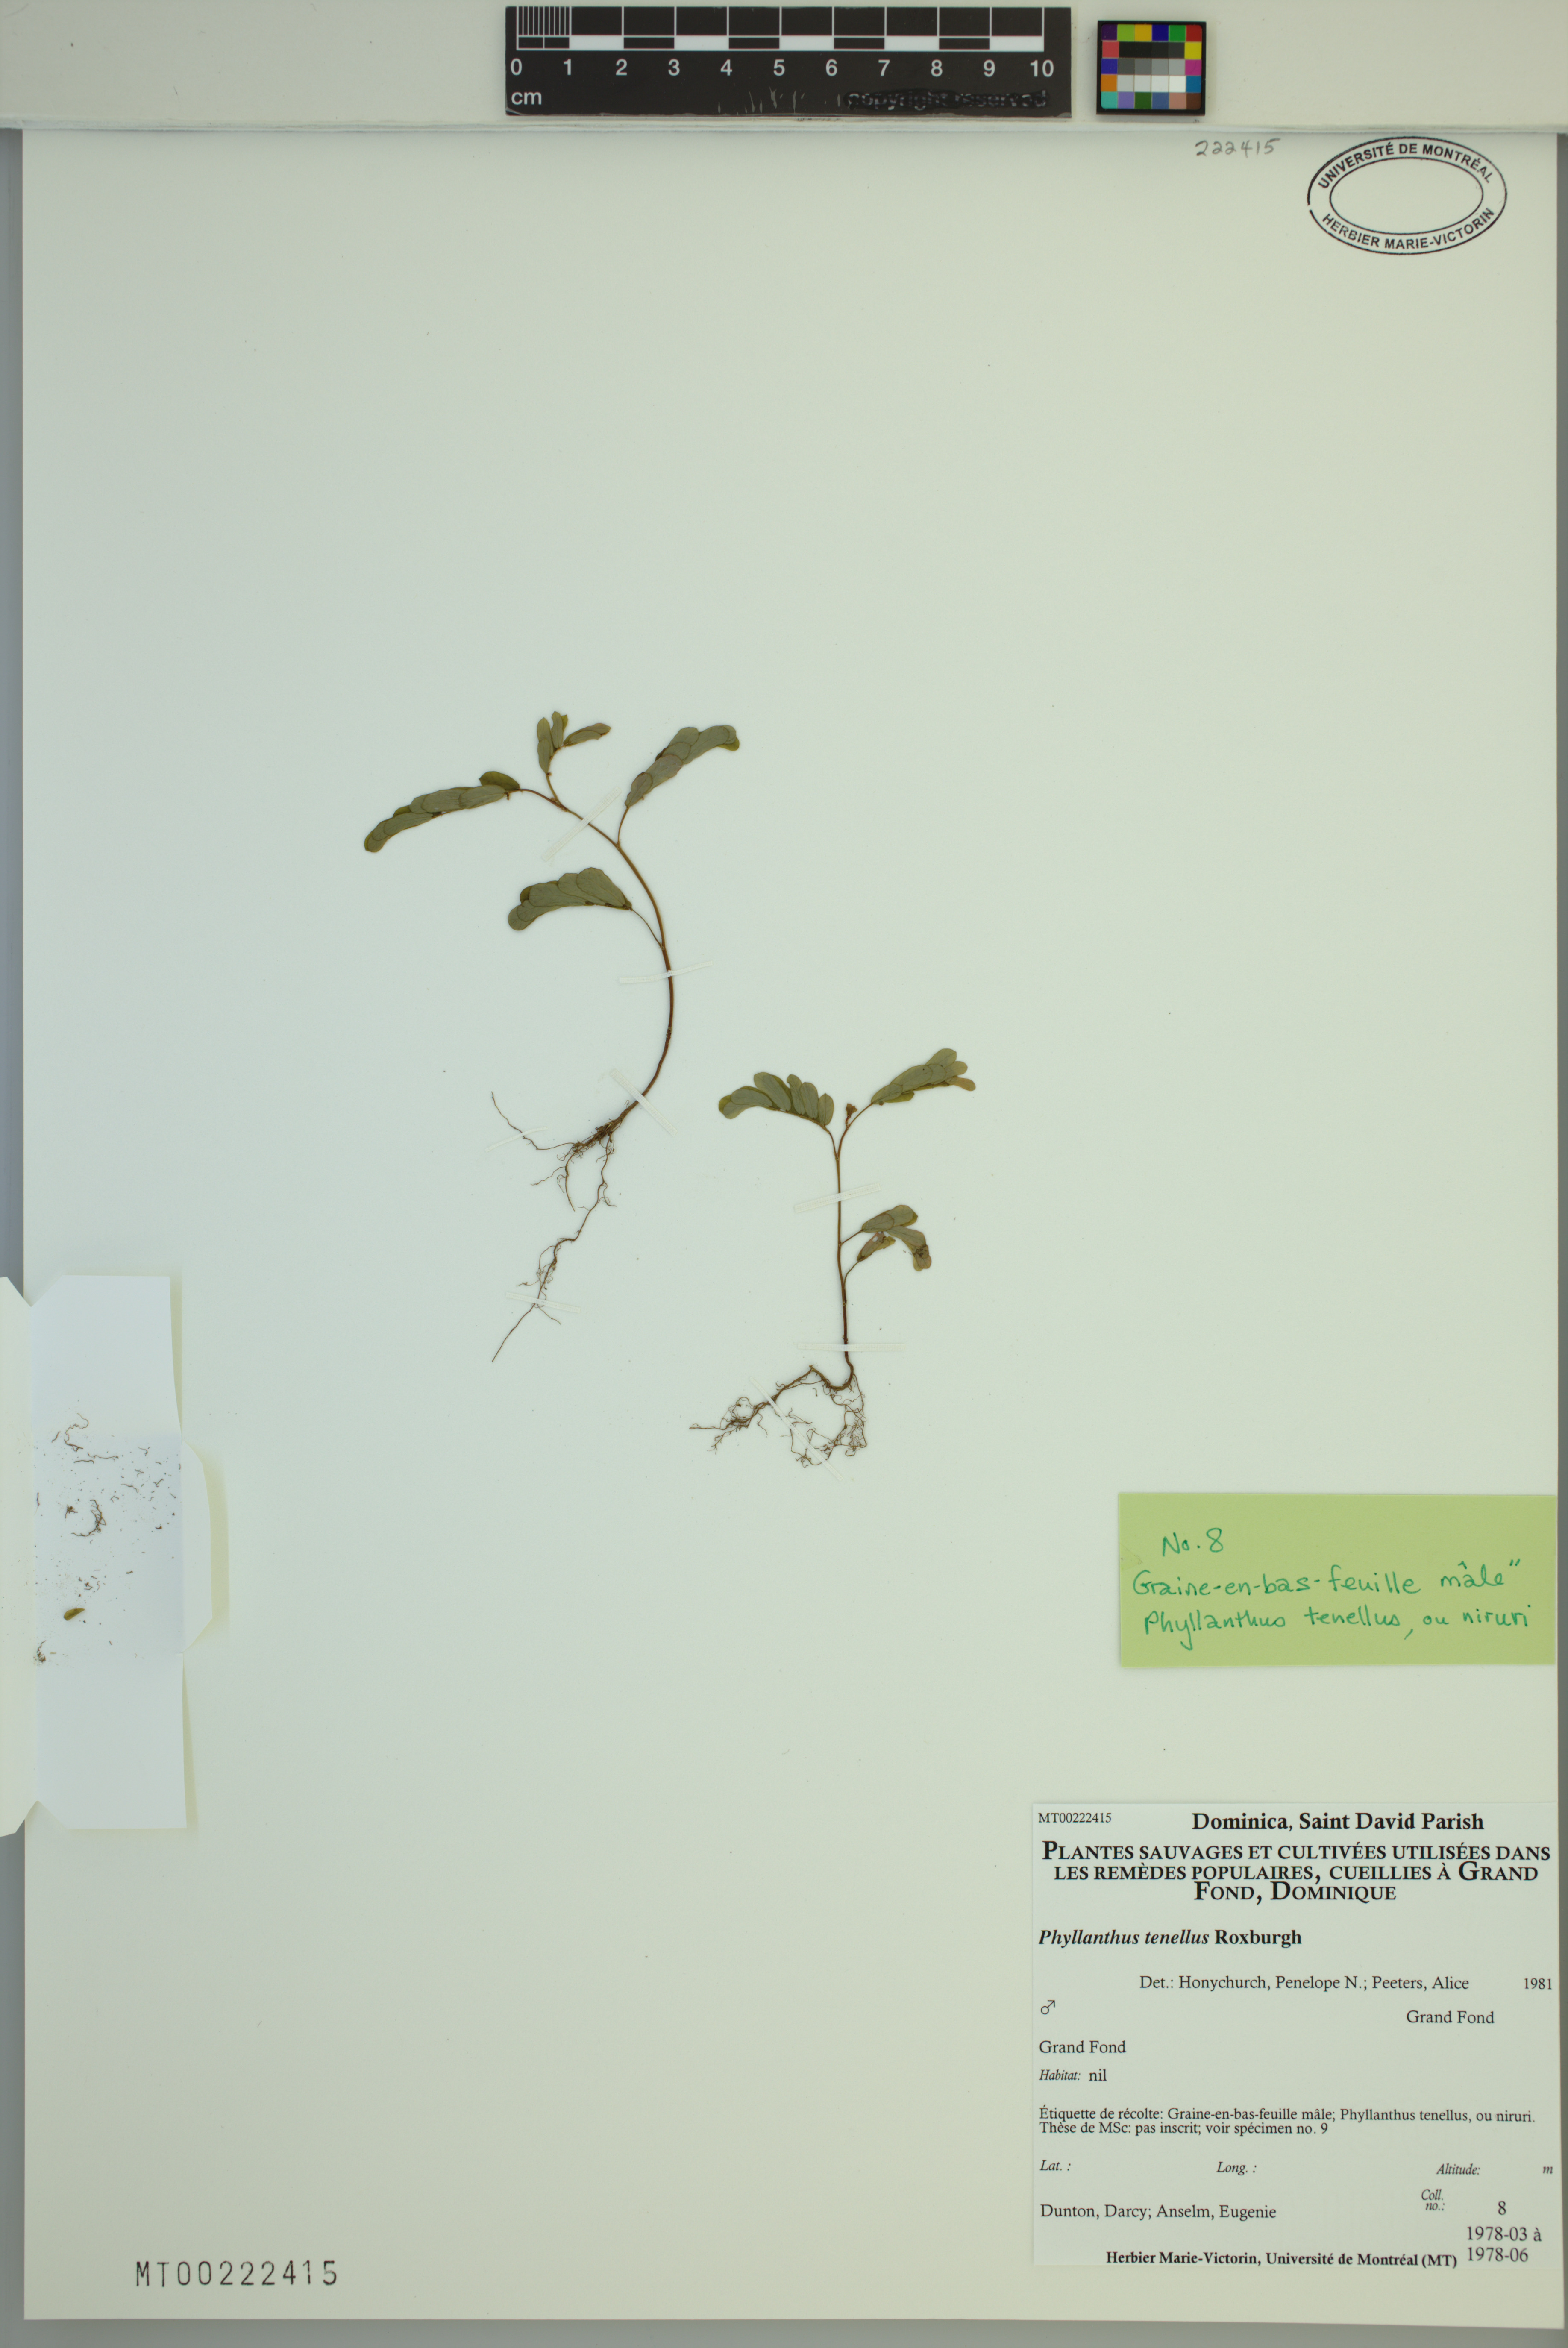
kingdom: Plantae
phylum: Tracheophyta
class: Magnoliopsida
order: Malpighiales
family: Phyllanthaceae
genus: Phyllanthus
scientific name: Phyllanthus tenellus
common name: Mascarene island leaf-flower
